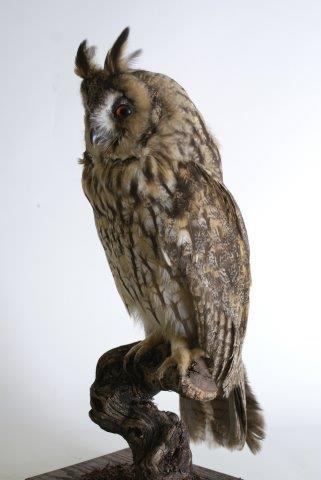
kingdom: Animalia
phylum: Chordata
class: Aves
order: Strigiformes
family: Strigidae
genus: Asio
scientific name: Asio otus
